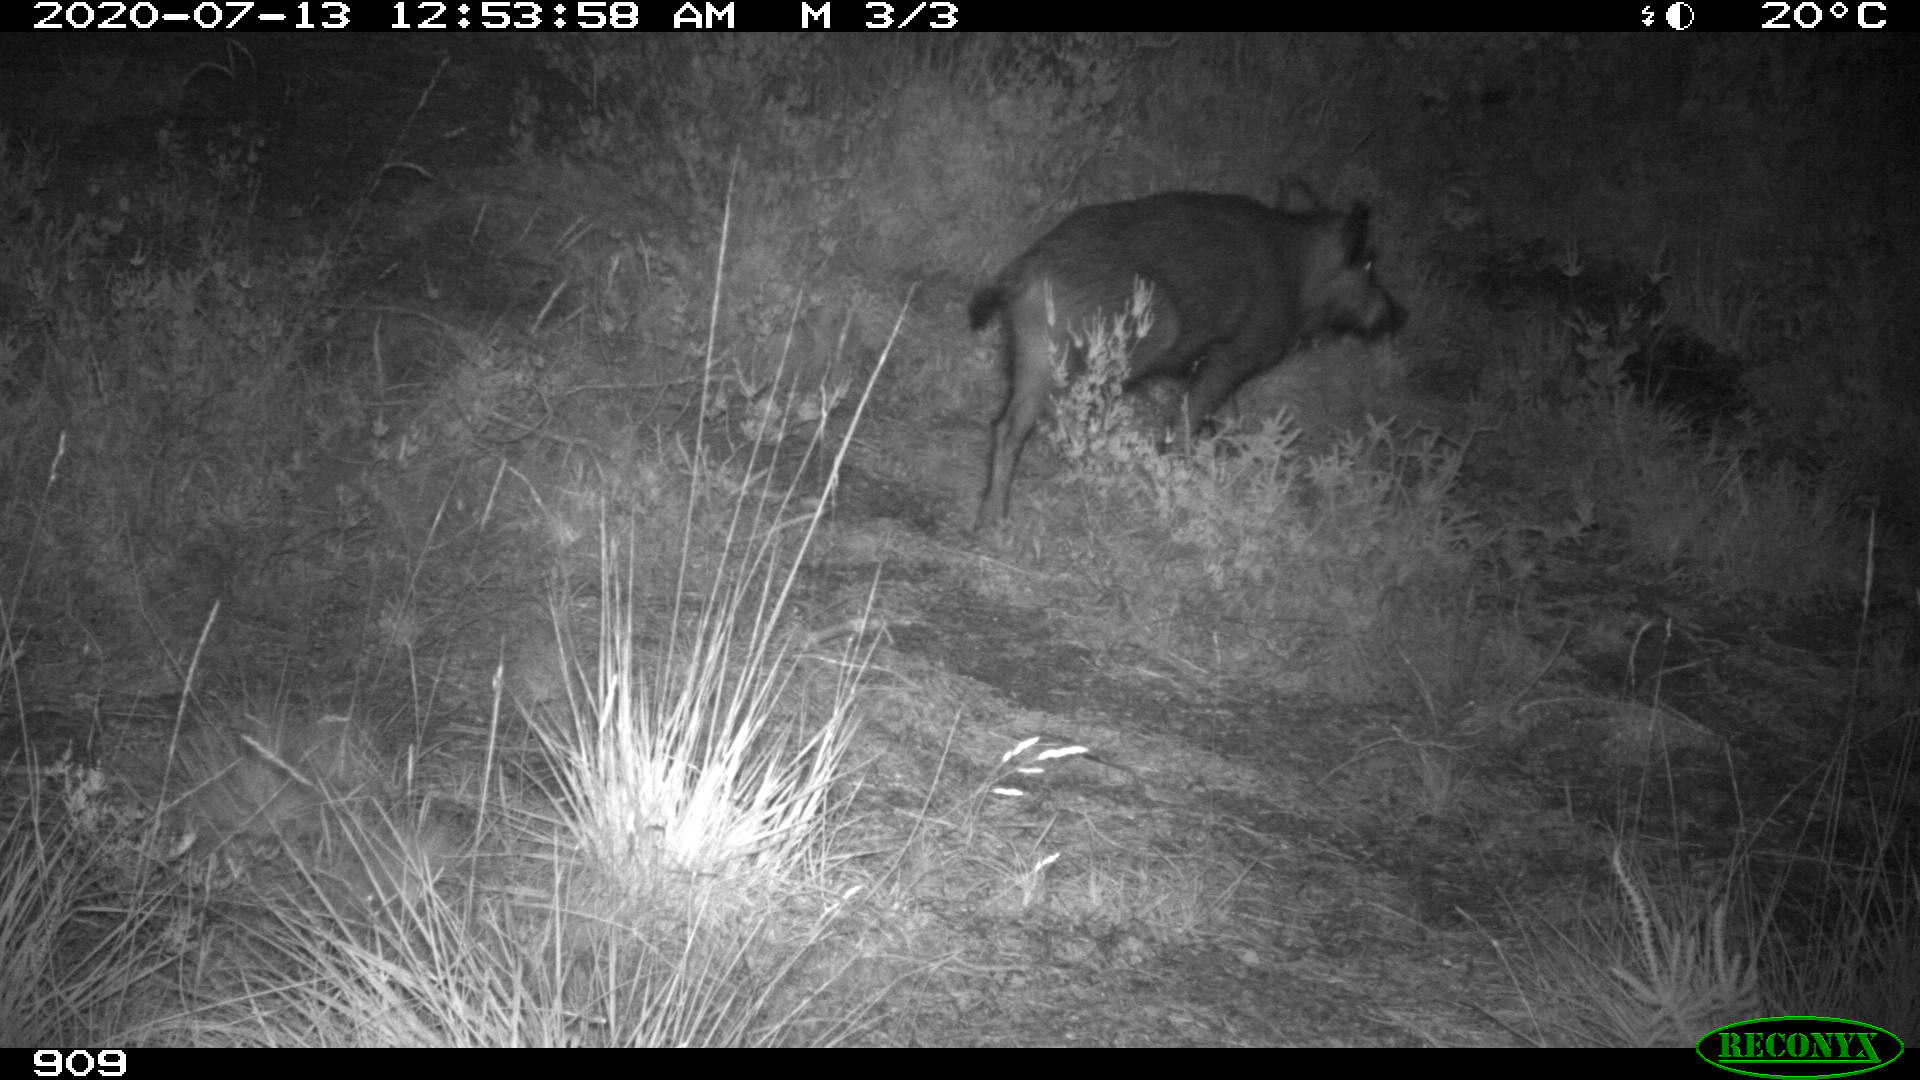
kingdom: Animalia
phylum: Chordata
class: Mammalia
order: Artiodactyla
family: Suidae
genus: Sus
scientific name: Sus scrofa
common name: Wild boar
